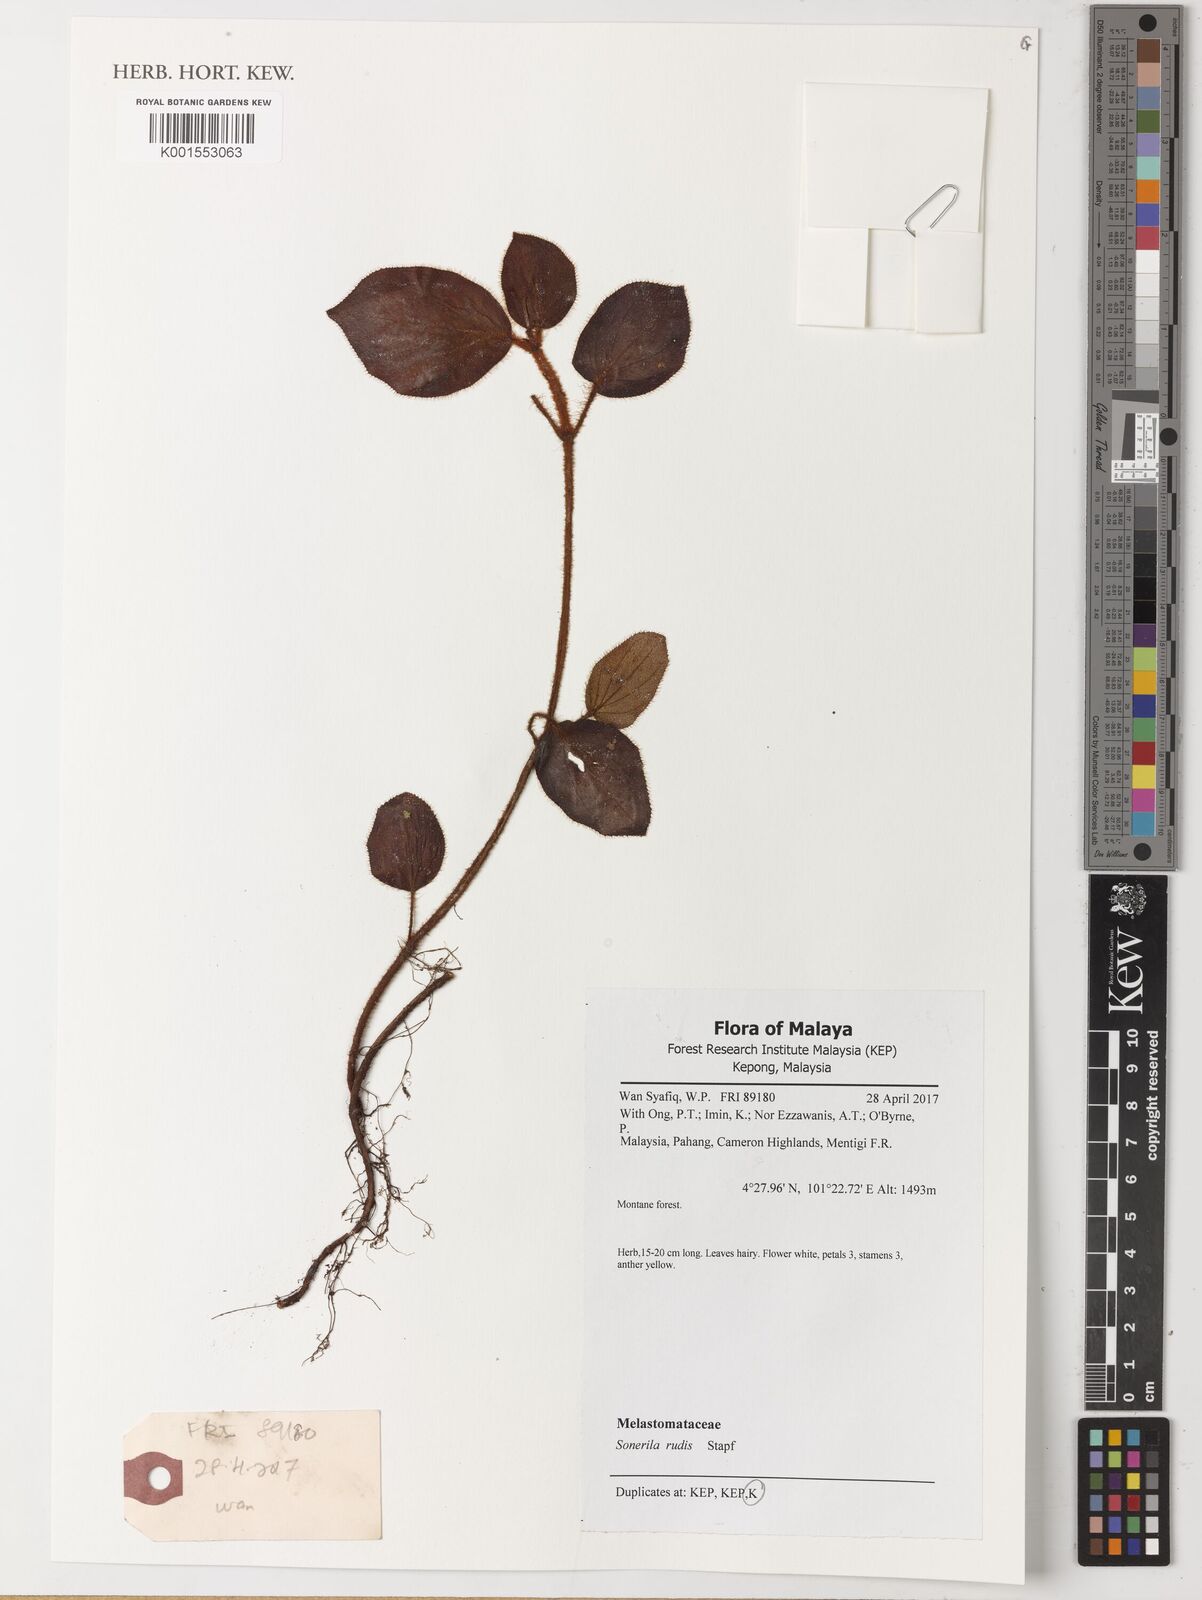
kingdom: Plantae
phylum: Tracheophyta
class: Magnoliopsida
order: Myrtales
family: Melastomataceae
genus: Sonerila
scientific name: Sonerila rudis
